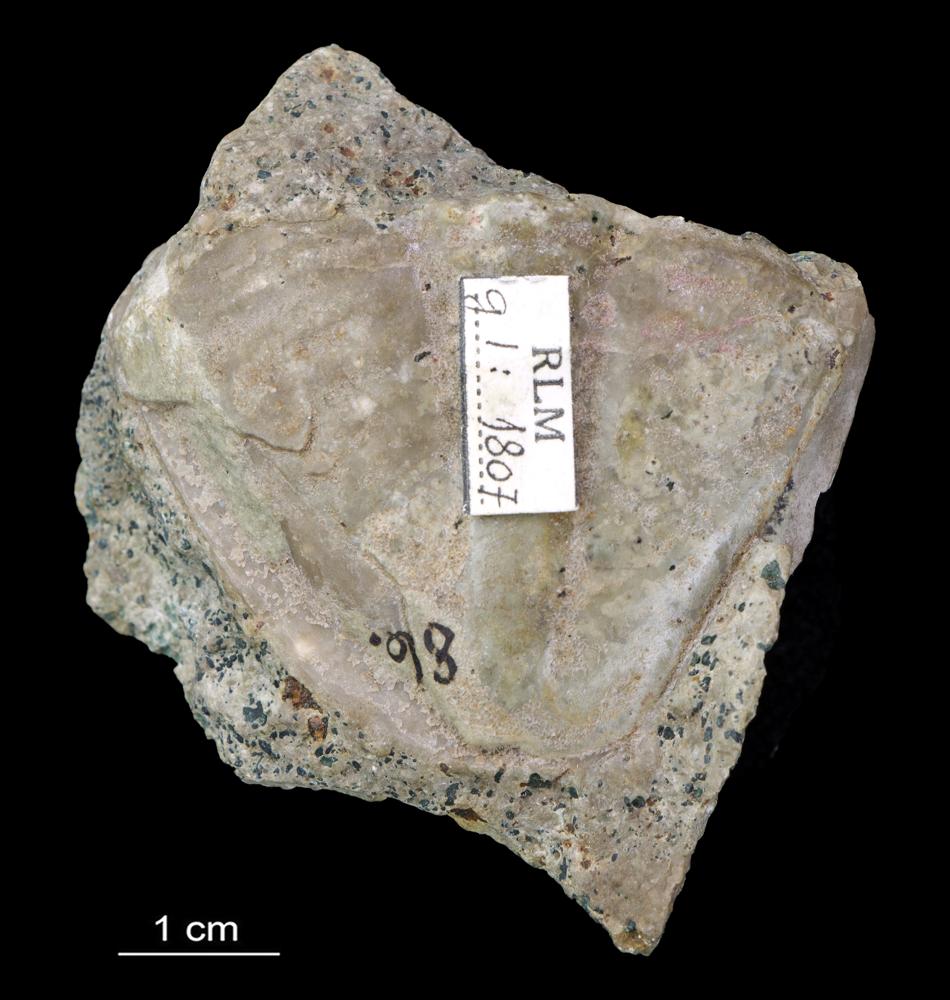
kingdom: Animalia
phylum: Arthropoda
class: Trilobita
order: Asaphida
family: Asaphidae
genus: Ptychopyge
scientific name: Ptychopyge
